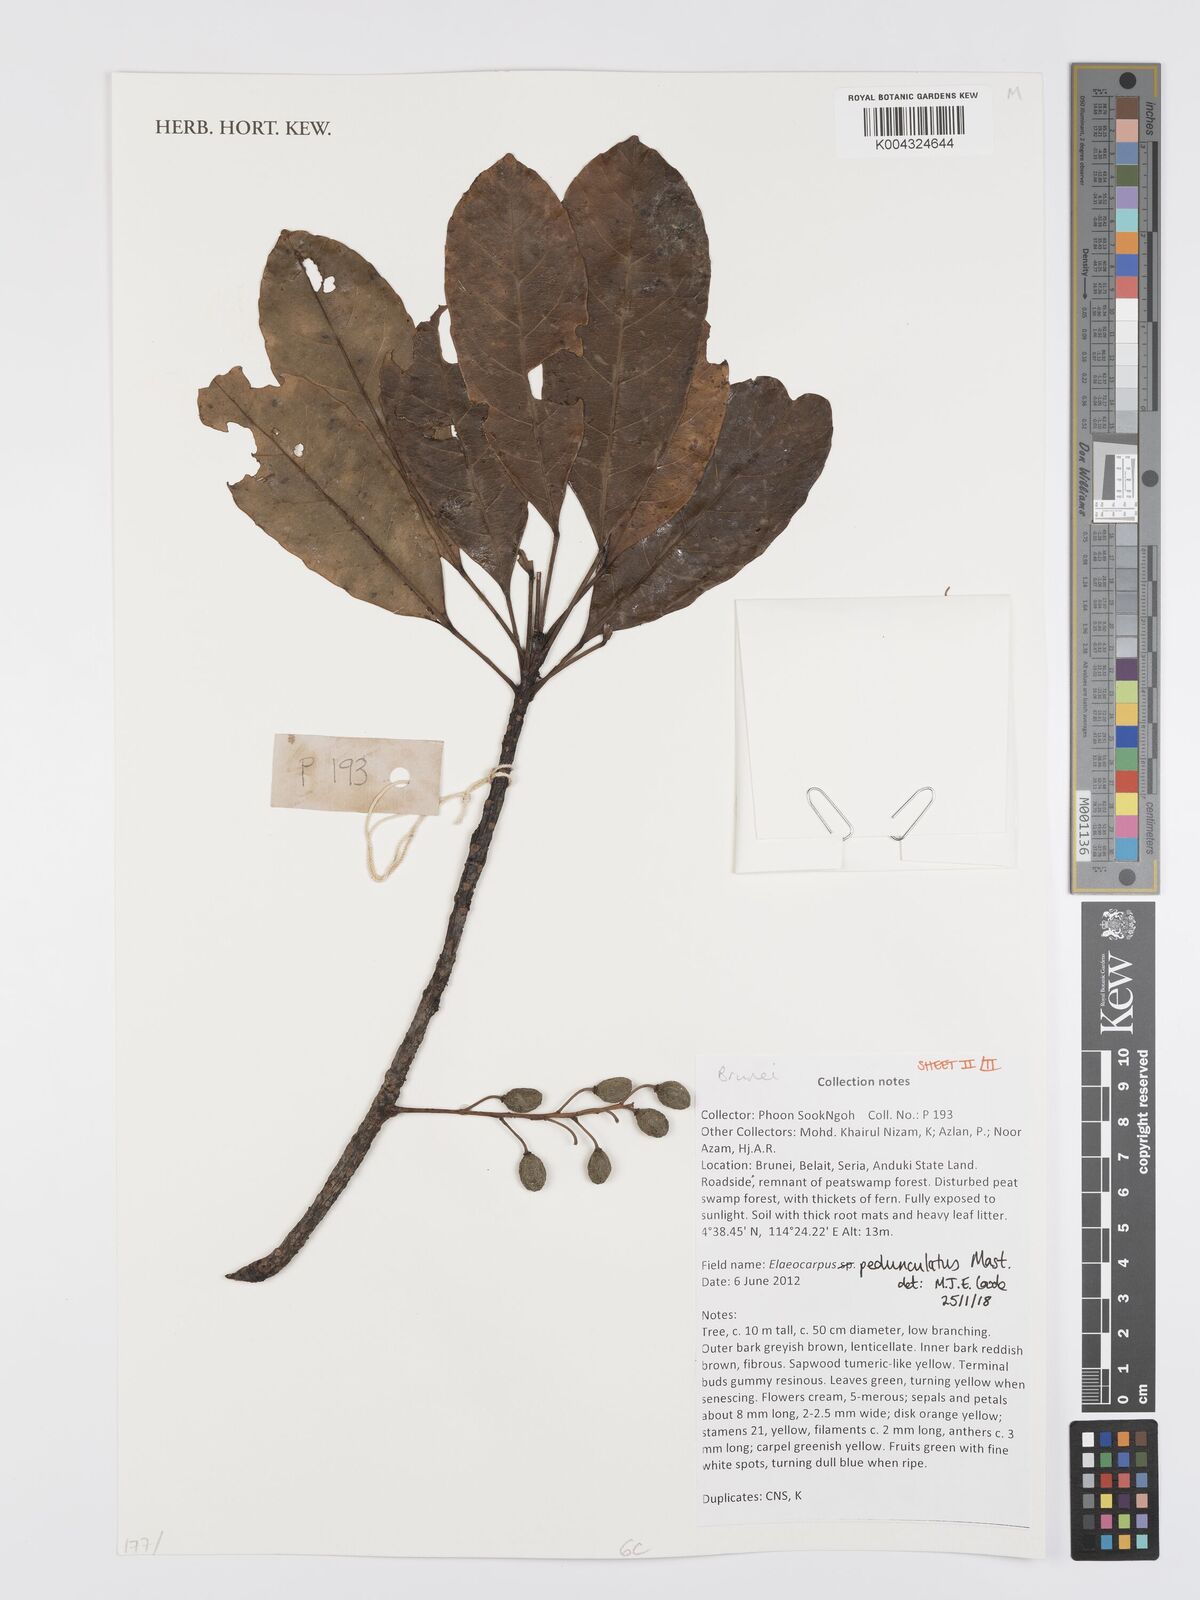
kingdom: Plantae
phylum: Tracheophyta
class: Magnoliopsida
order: Oxalidales
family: Elaeocarpaceae
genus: Elaeocarpus
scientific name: Elaeocarpus pedunculatus
